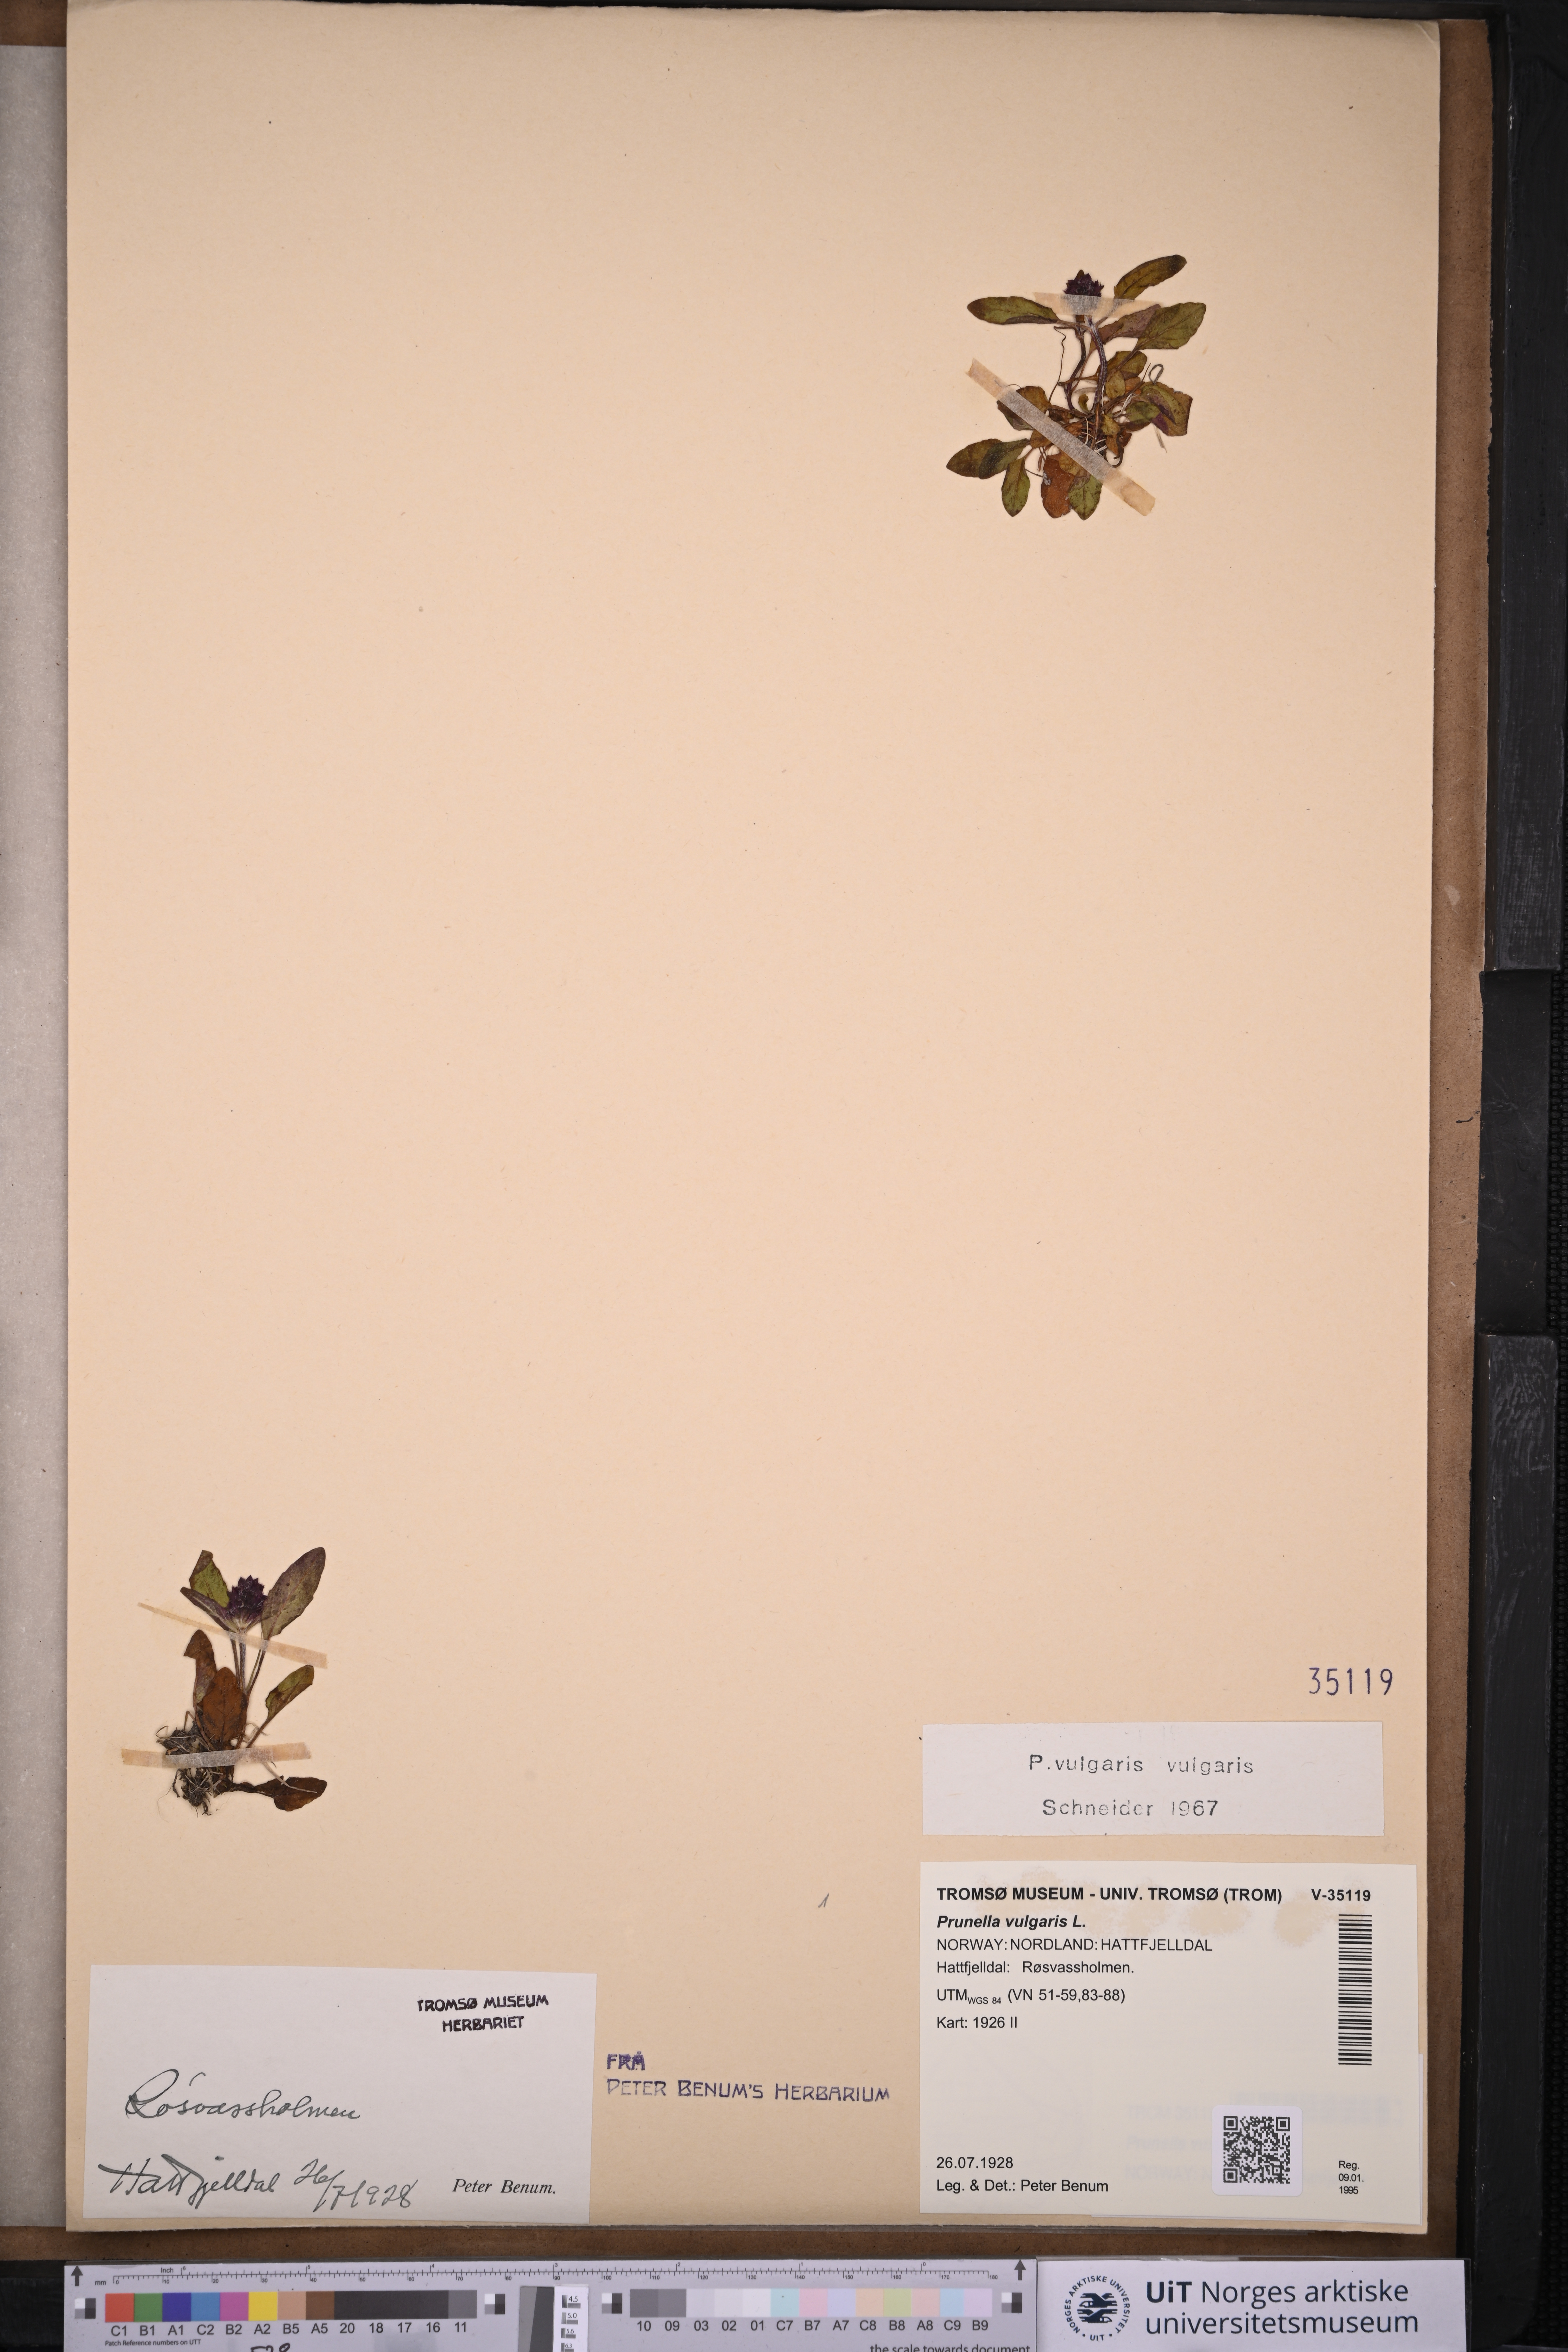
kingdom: Plantae
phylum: Tracheophyta
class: Magnoliopsida
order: Lamiales
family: Lamiaceae
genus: Prunella
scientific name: Prunella vulgaris
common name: Heal-all
